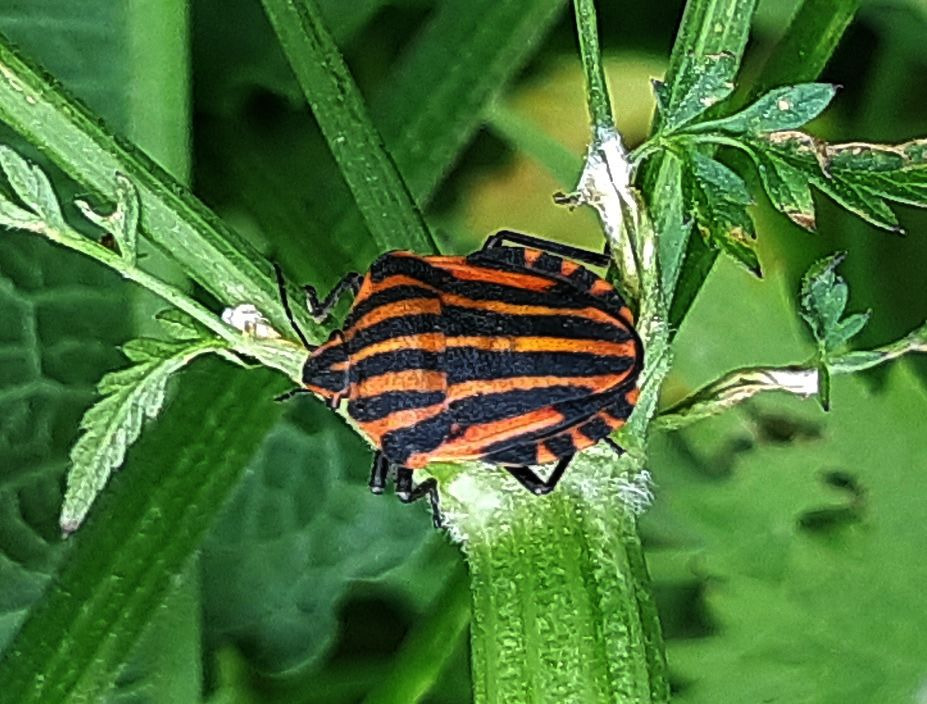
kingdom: Animalia
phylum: Arthropoda
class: Insecta
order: Hemiptera
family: Pentatomidae
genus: Graphosoma
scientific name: Graphosoma italicum
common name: Stribetæge
